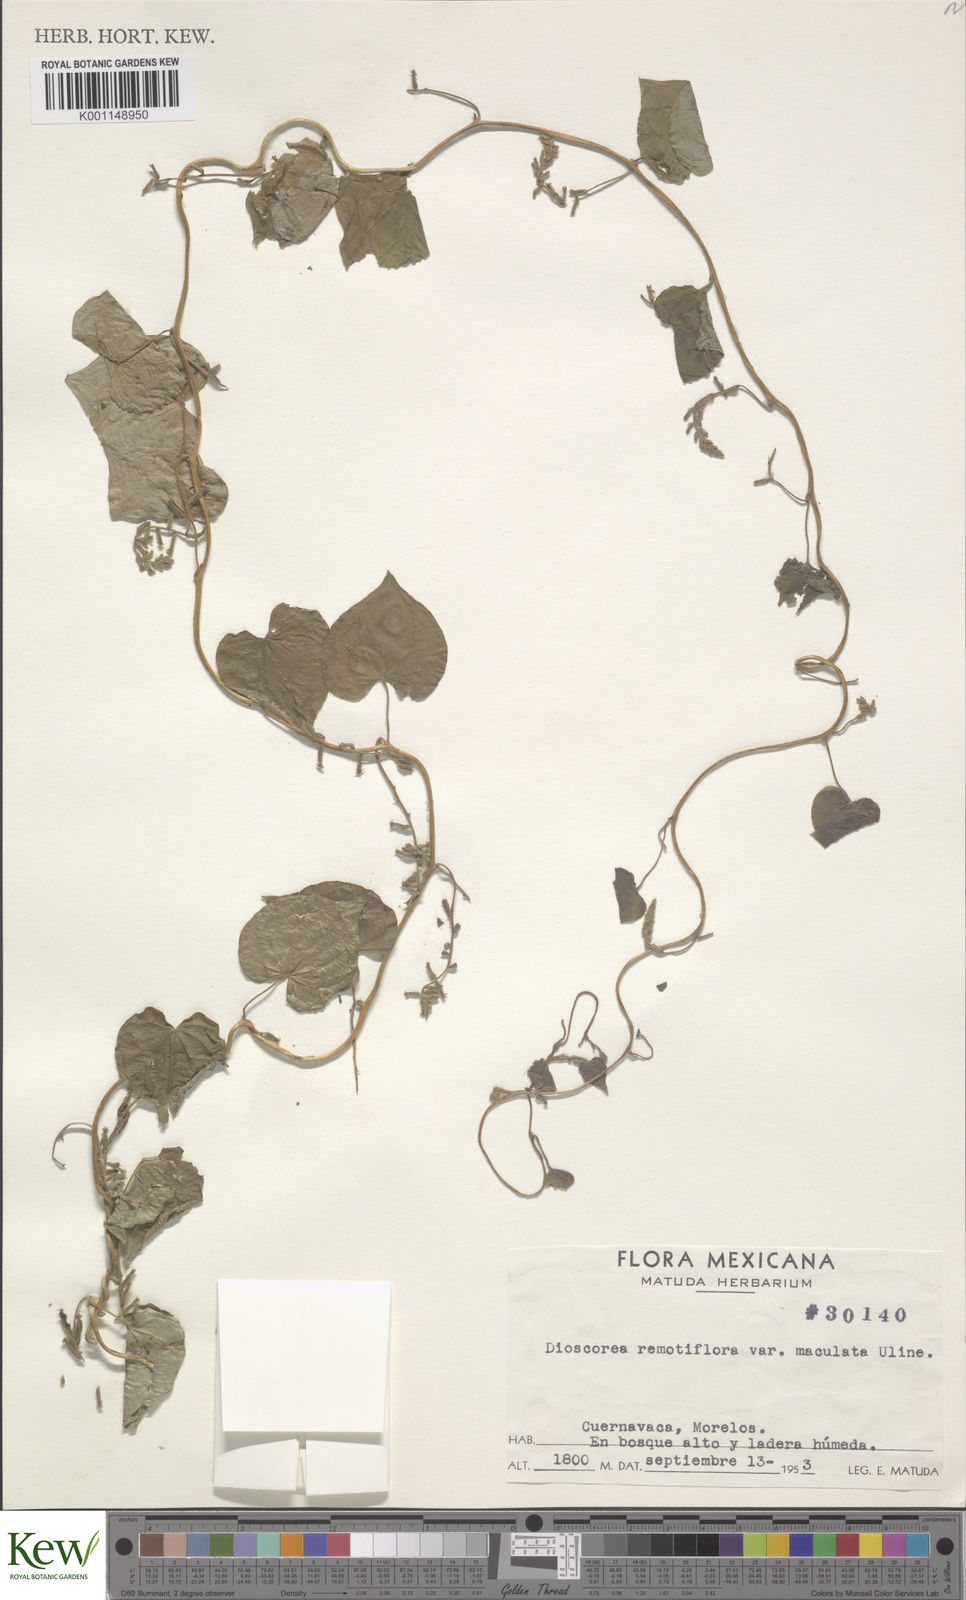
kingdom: Plantae
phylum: Tracheophyta
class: Liliopsida
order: Dioscoreales
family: Dioscoreaceae
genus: Dioscorea
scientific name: Dioscorea remotiflora
